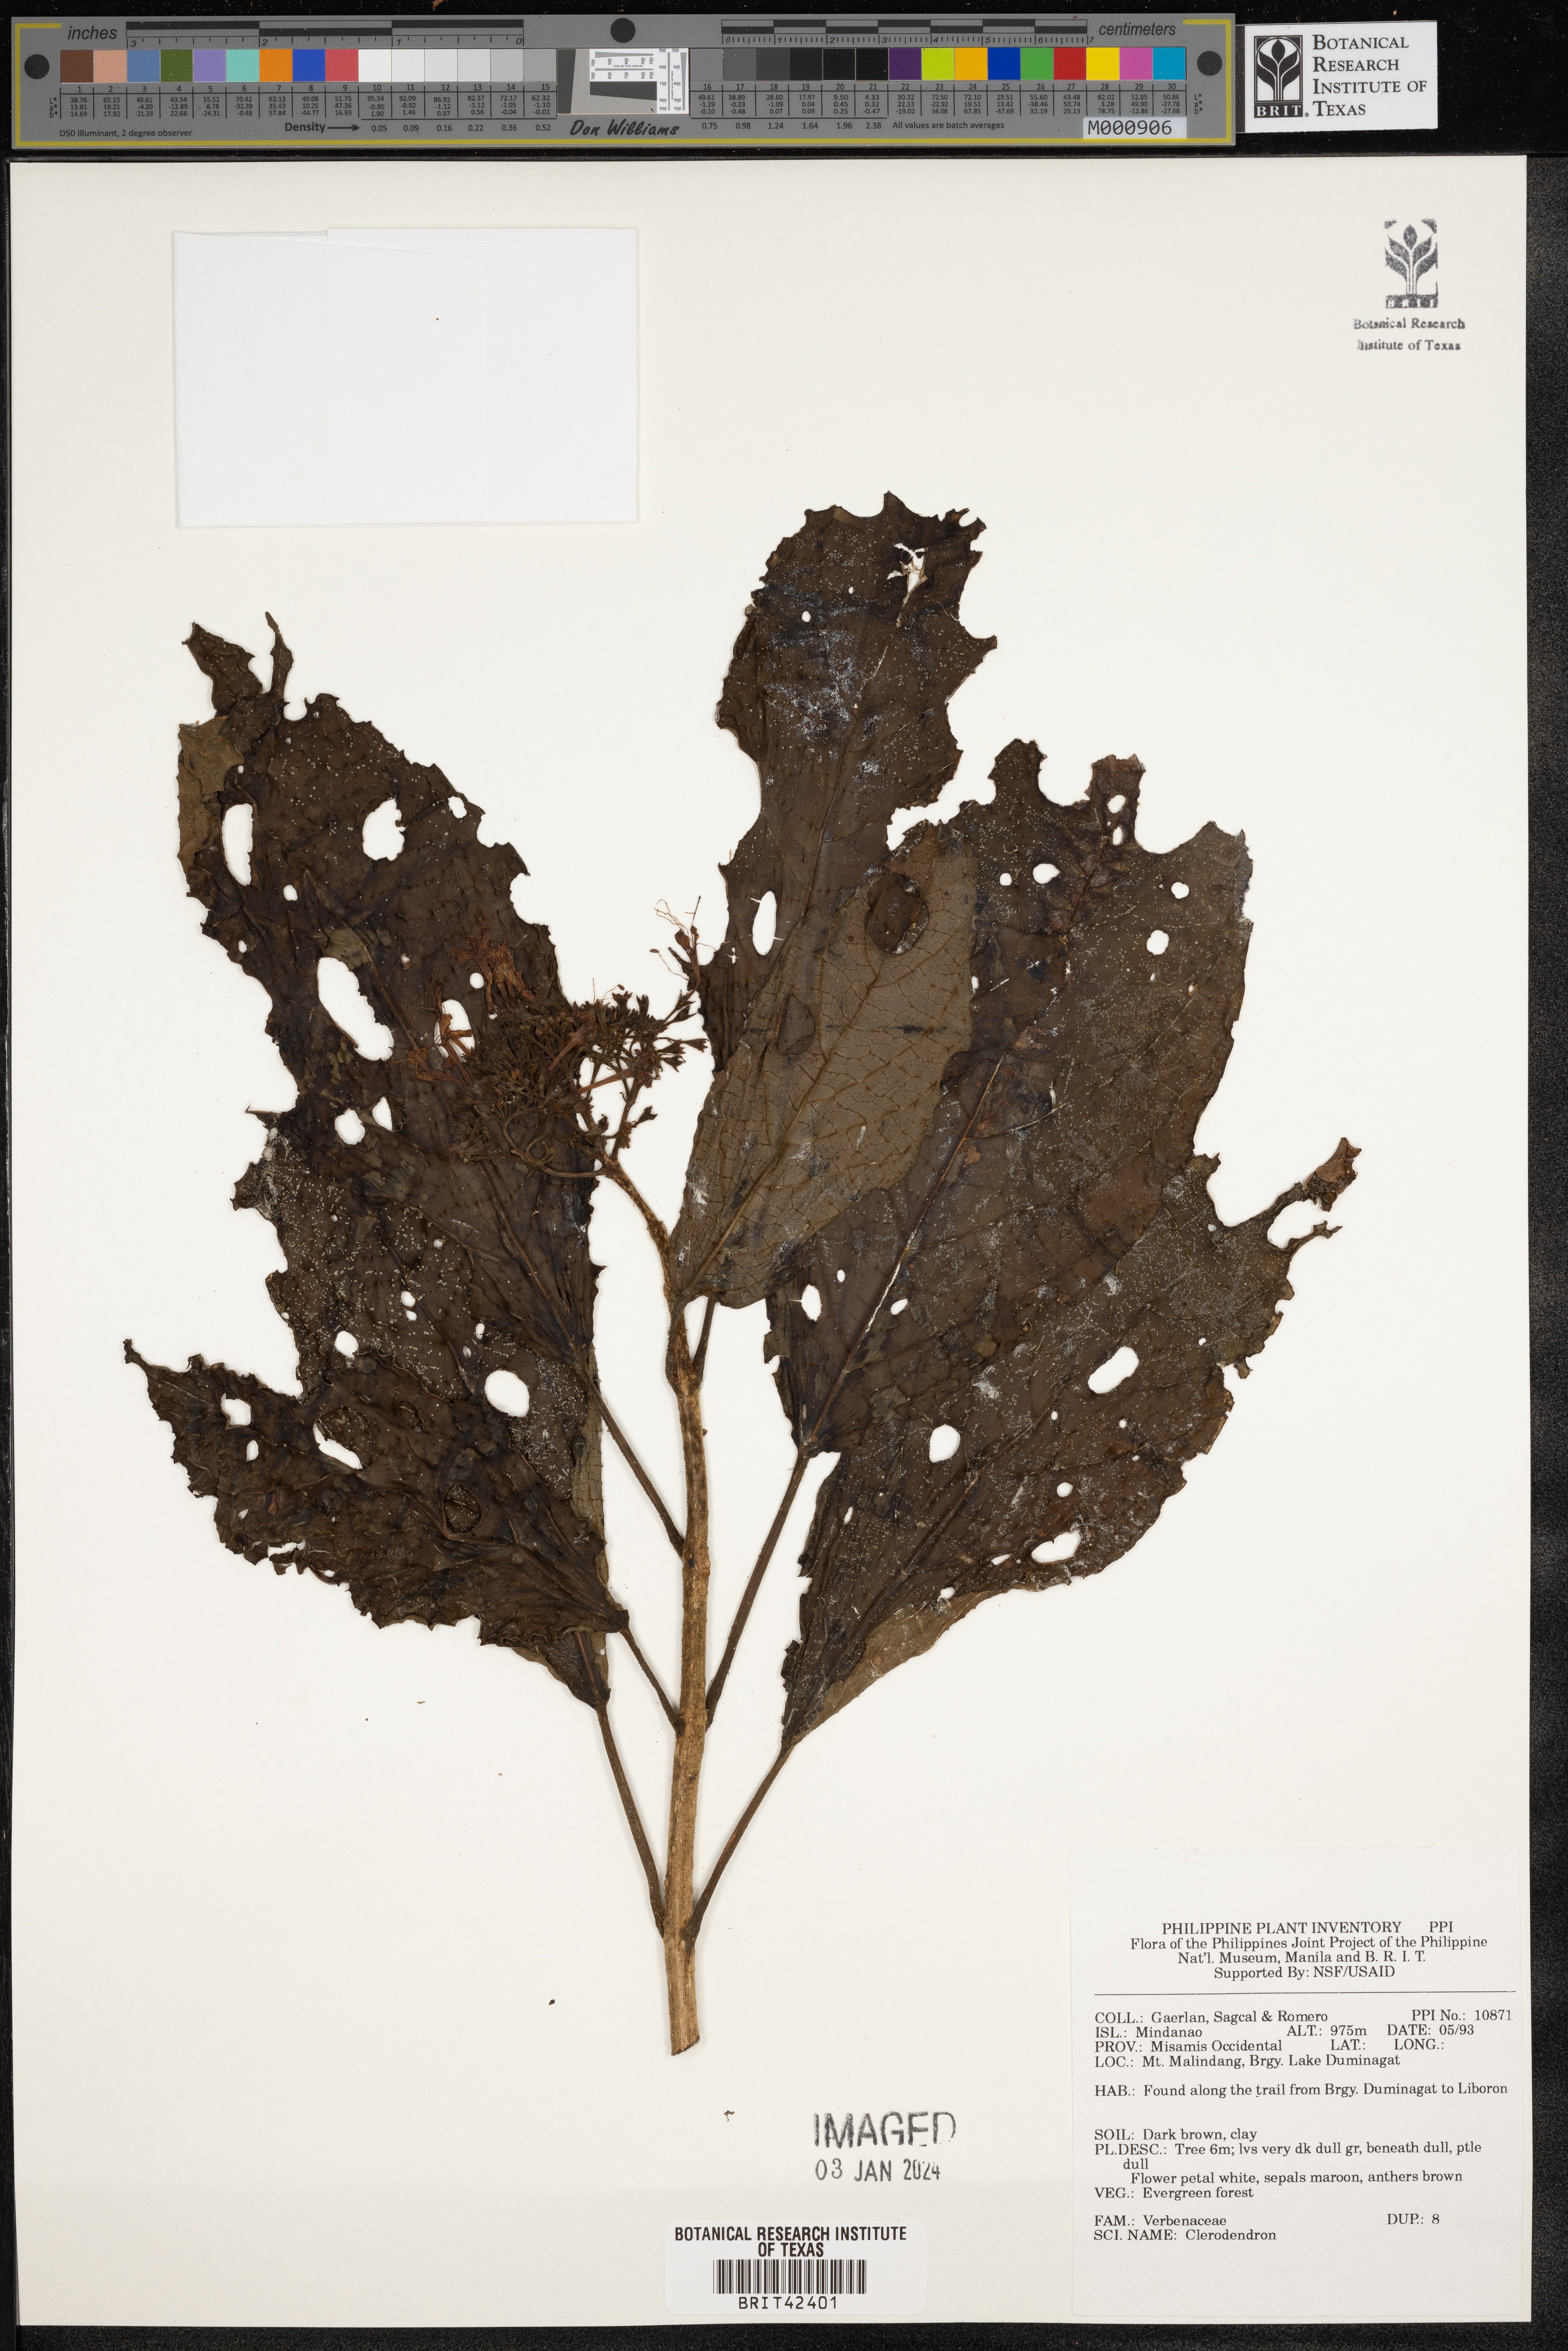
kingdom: Plantae
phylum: Tracheophyta
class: Magnoliopsida
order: Lamiales
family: Lamiaceae
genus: Clerodendrum
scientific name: Clerodendrum
